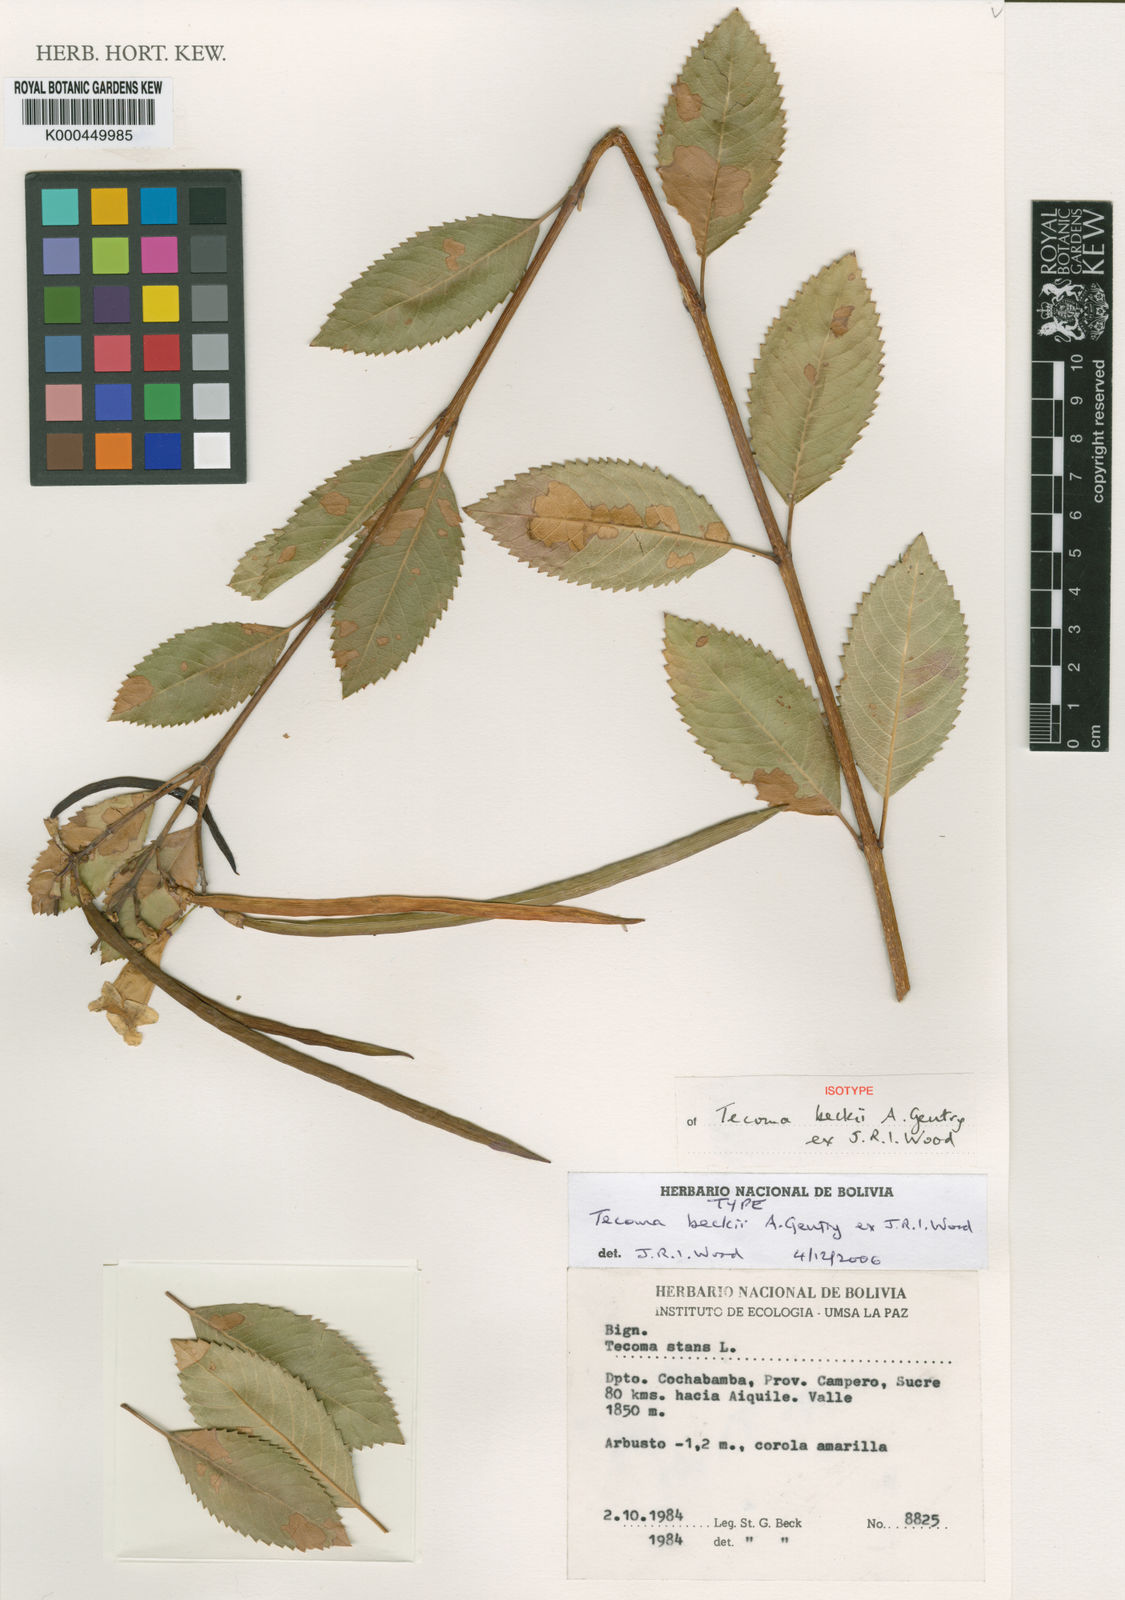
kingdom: Plantae
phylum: Tracheophyta
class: Magnoliopsida
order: Lamiales
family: Bignoniaceae
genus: Tecoma
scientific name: Tecoma
